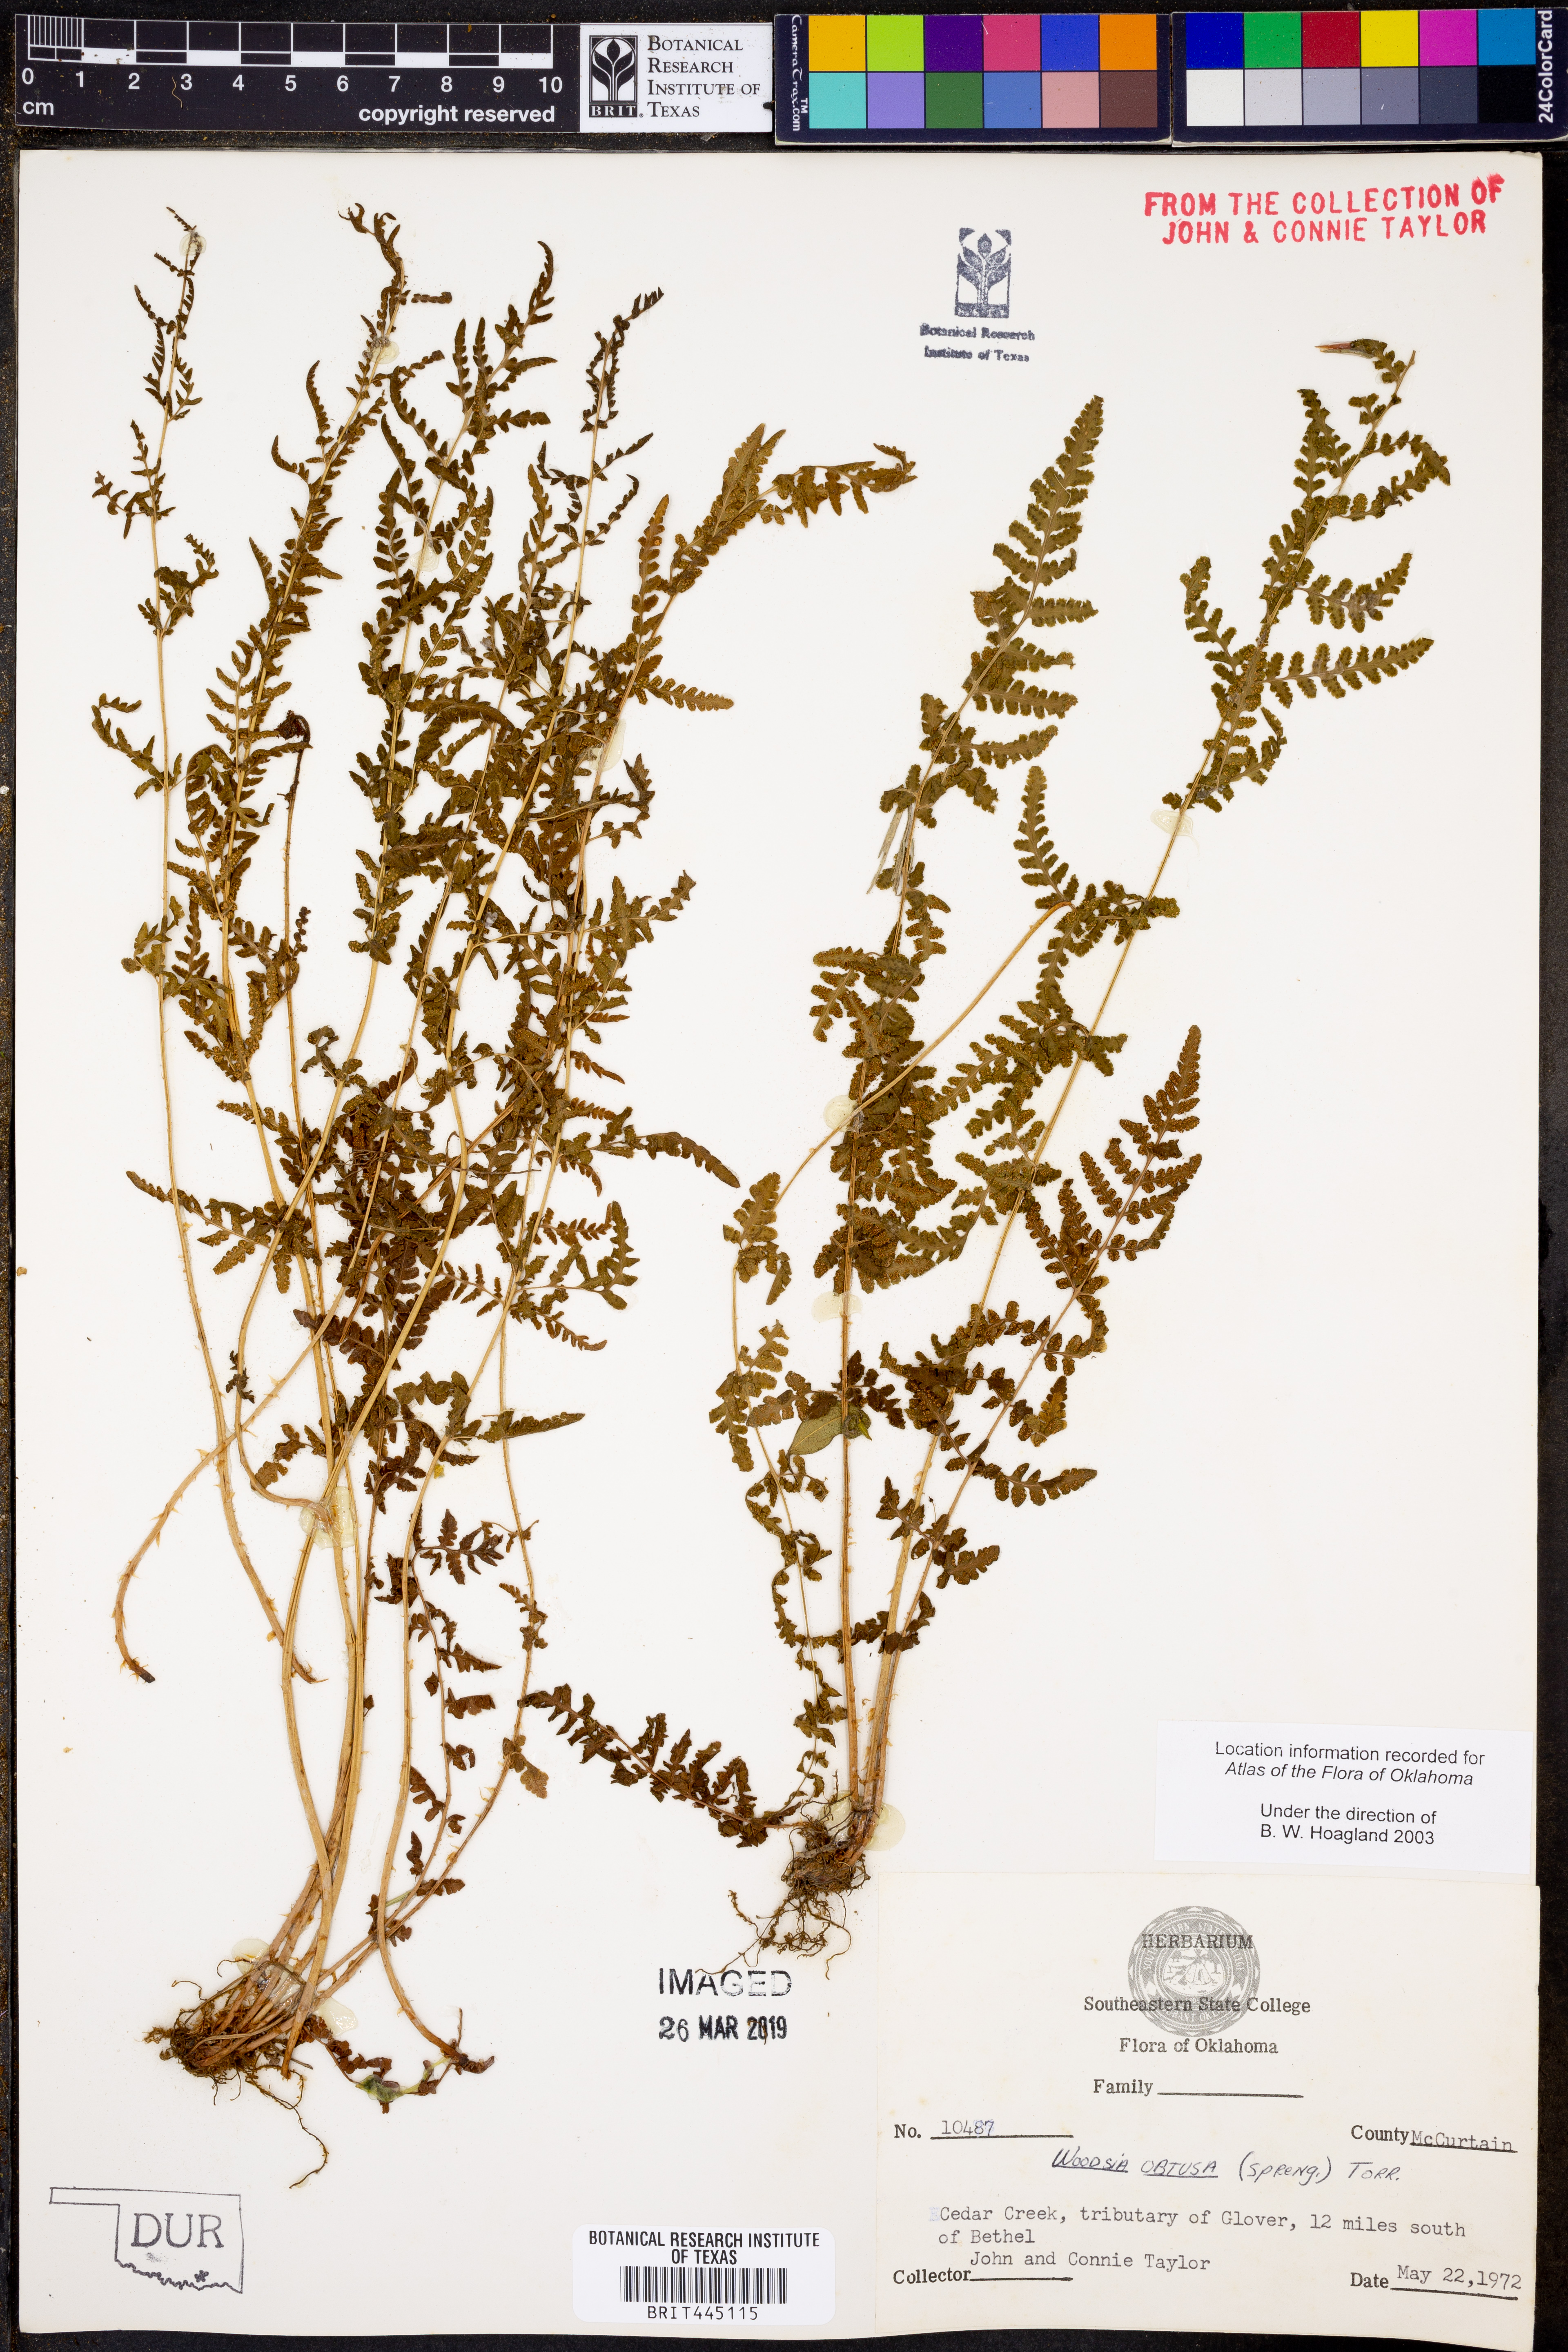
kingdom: Plantae
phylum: Tracheophyta
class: Polypodiopsida
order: Polypodiales
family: Woodsiaceae
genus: Physematium
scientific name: Physematium obtusum
